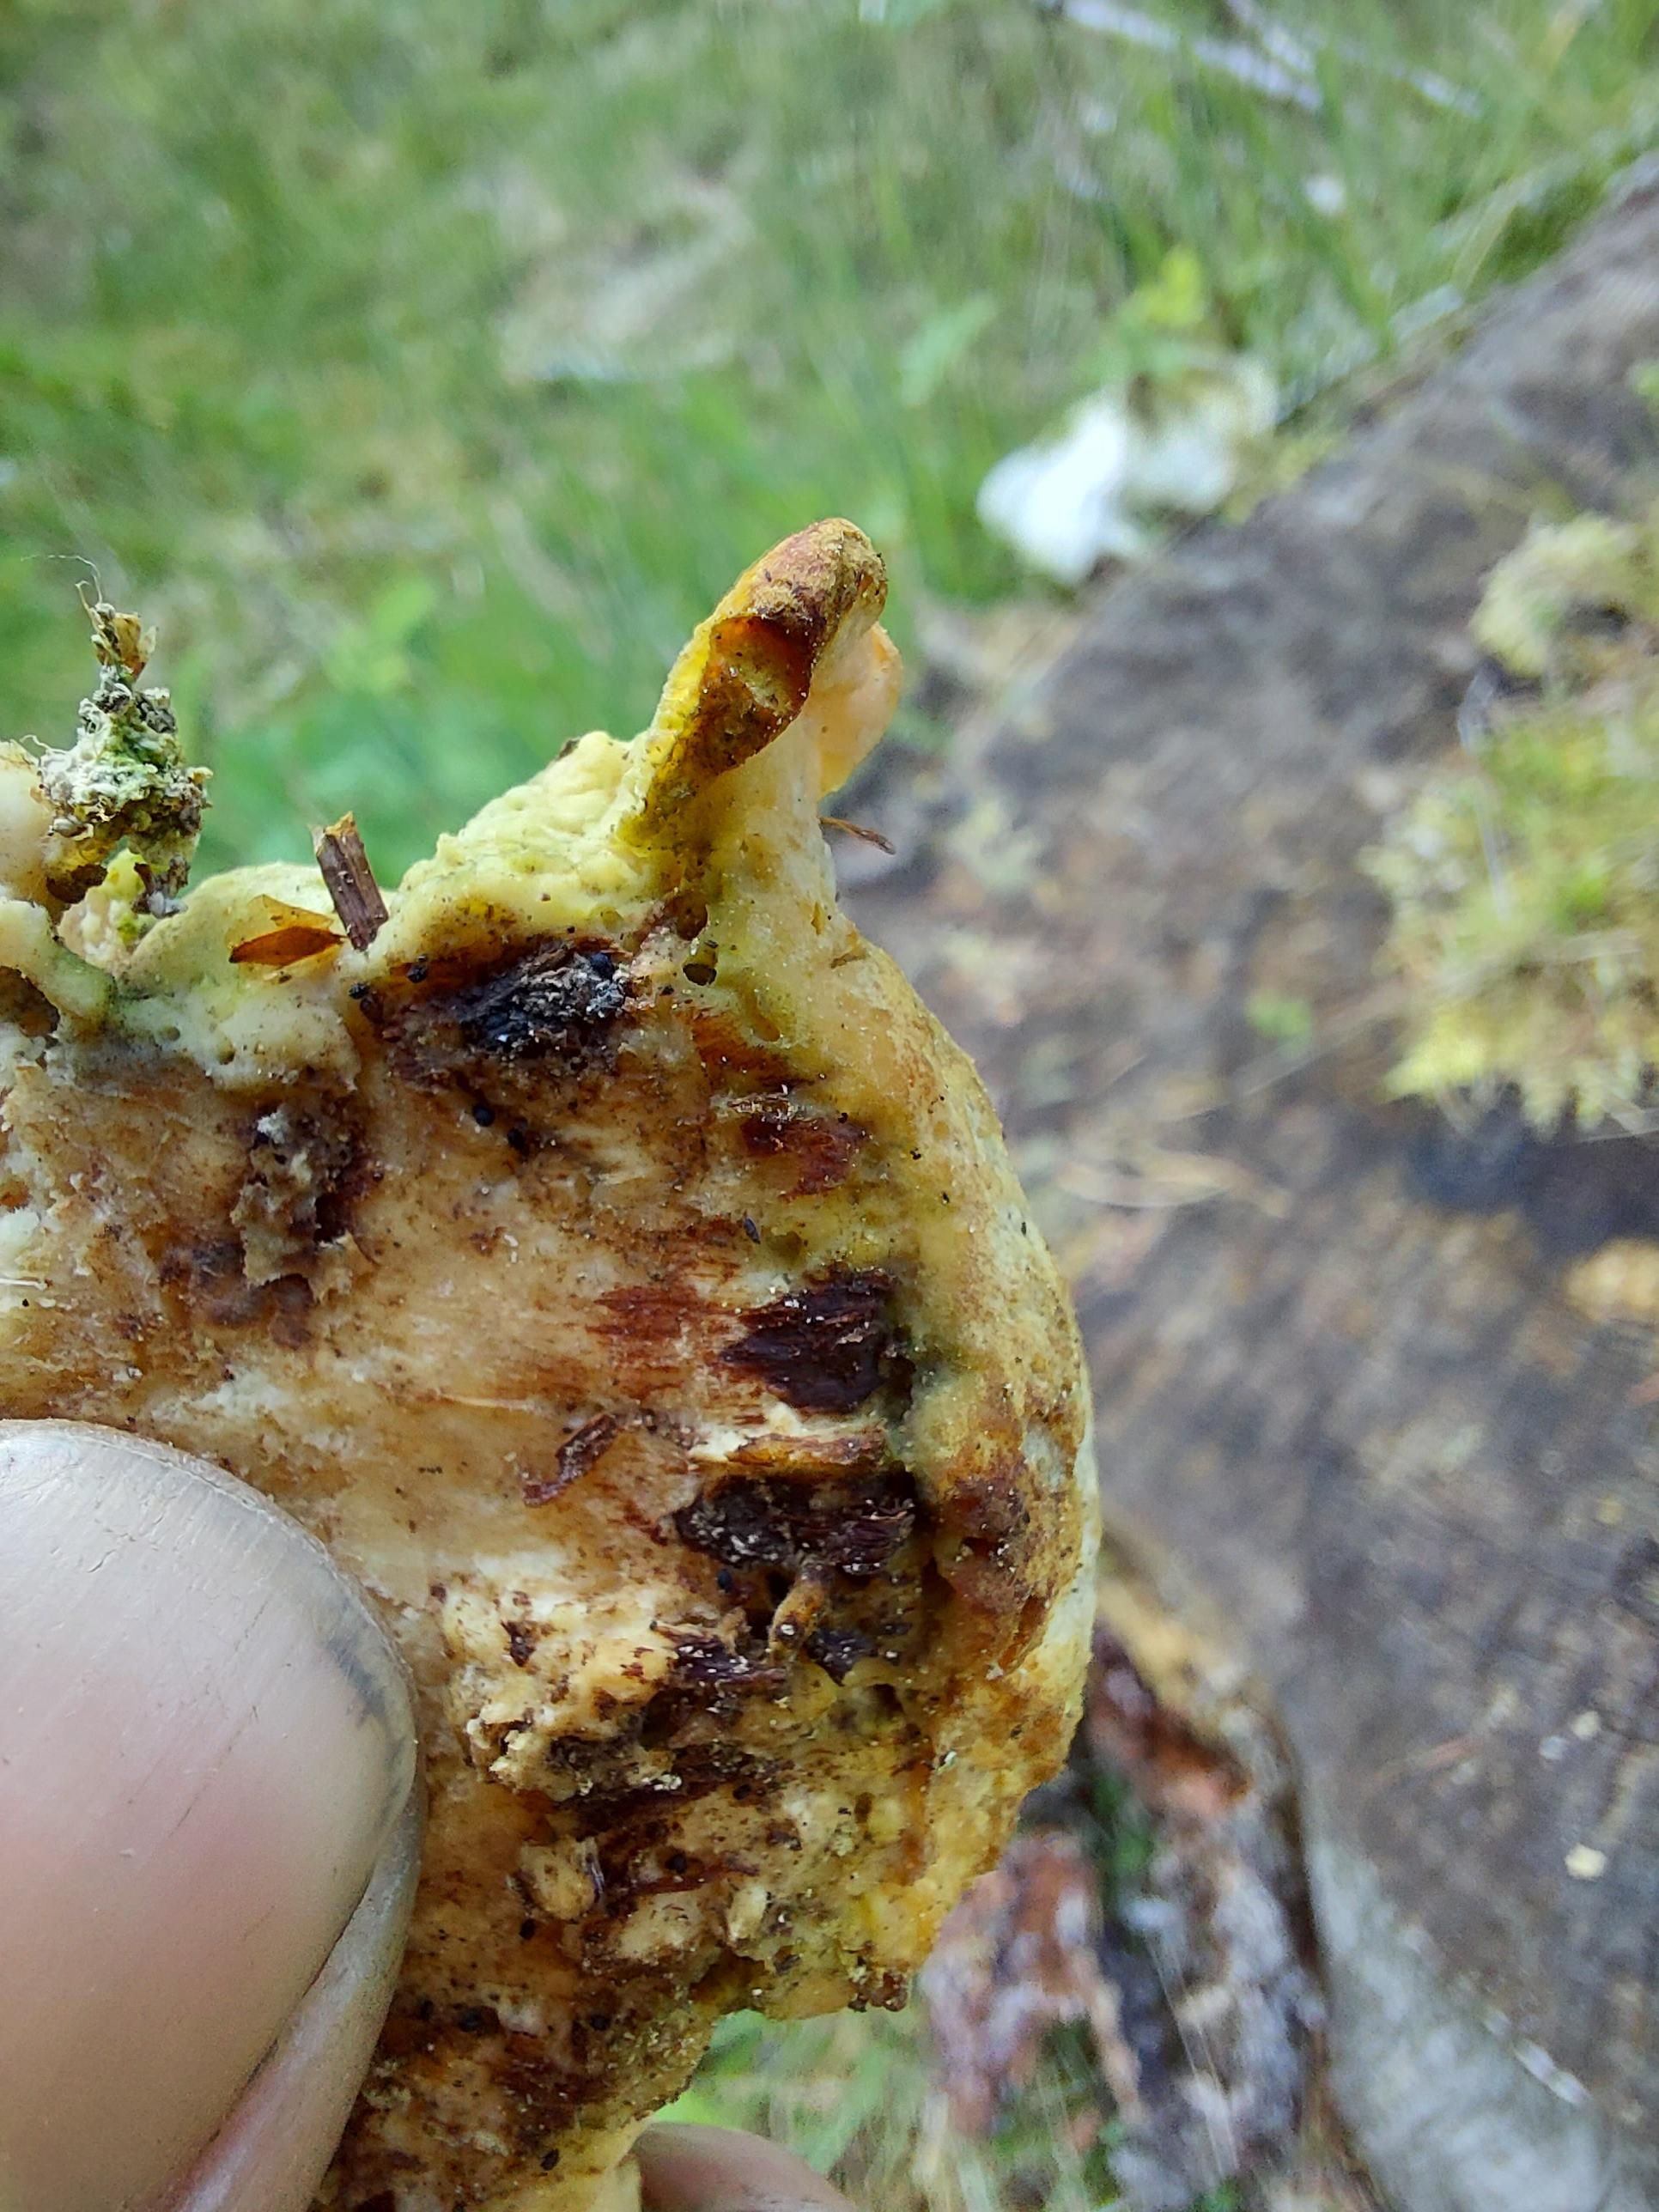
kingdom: Fungi
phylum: Basidiomycota
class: Agaricomycetes
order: Polyporales
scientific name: Polyporales
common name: poresvampordenen
